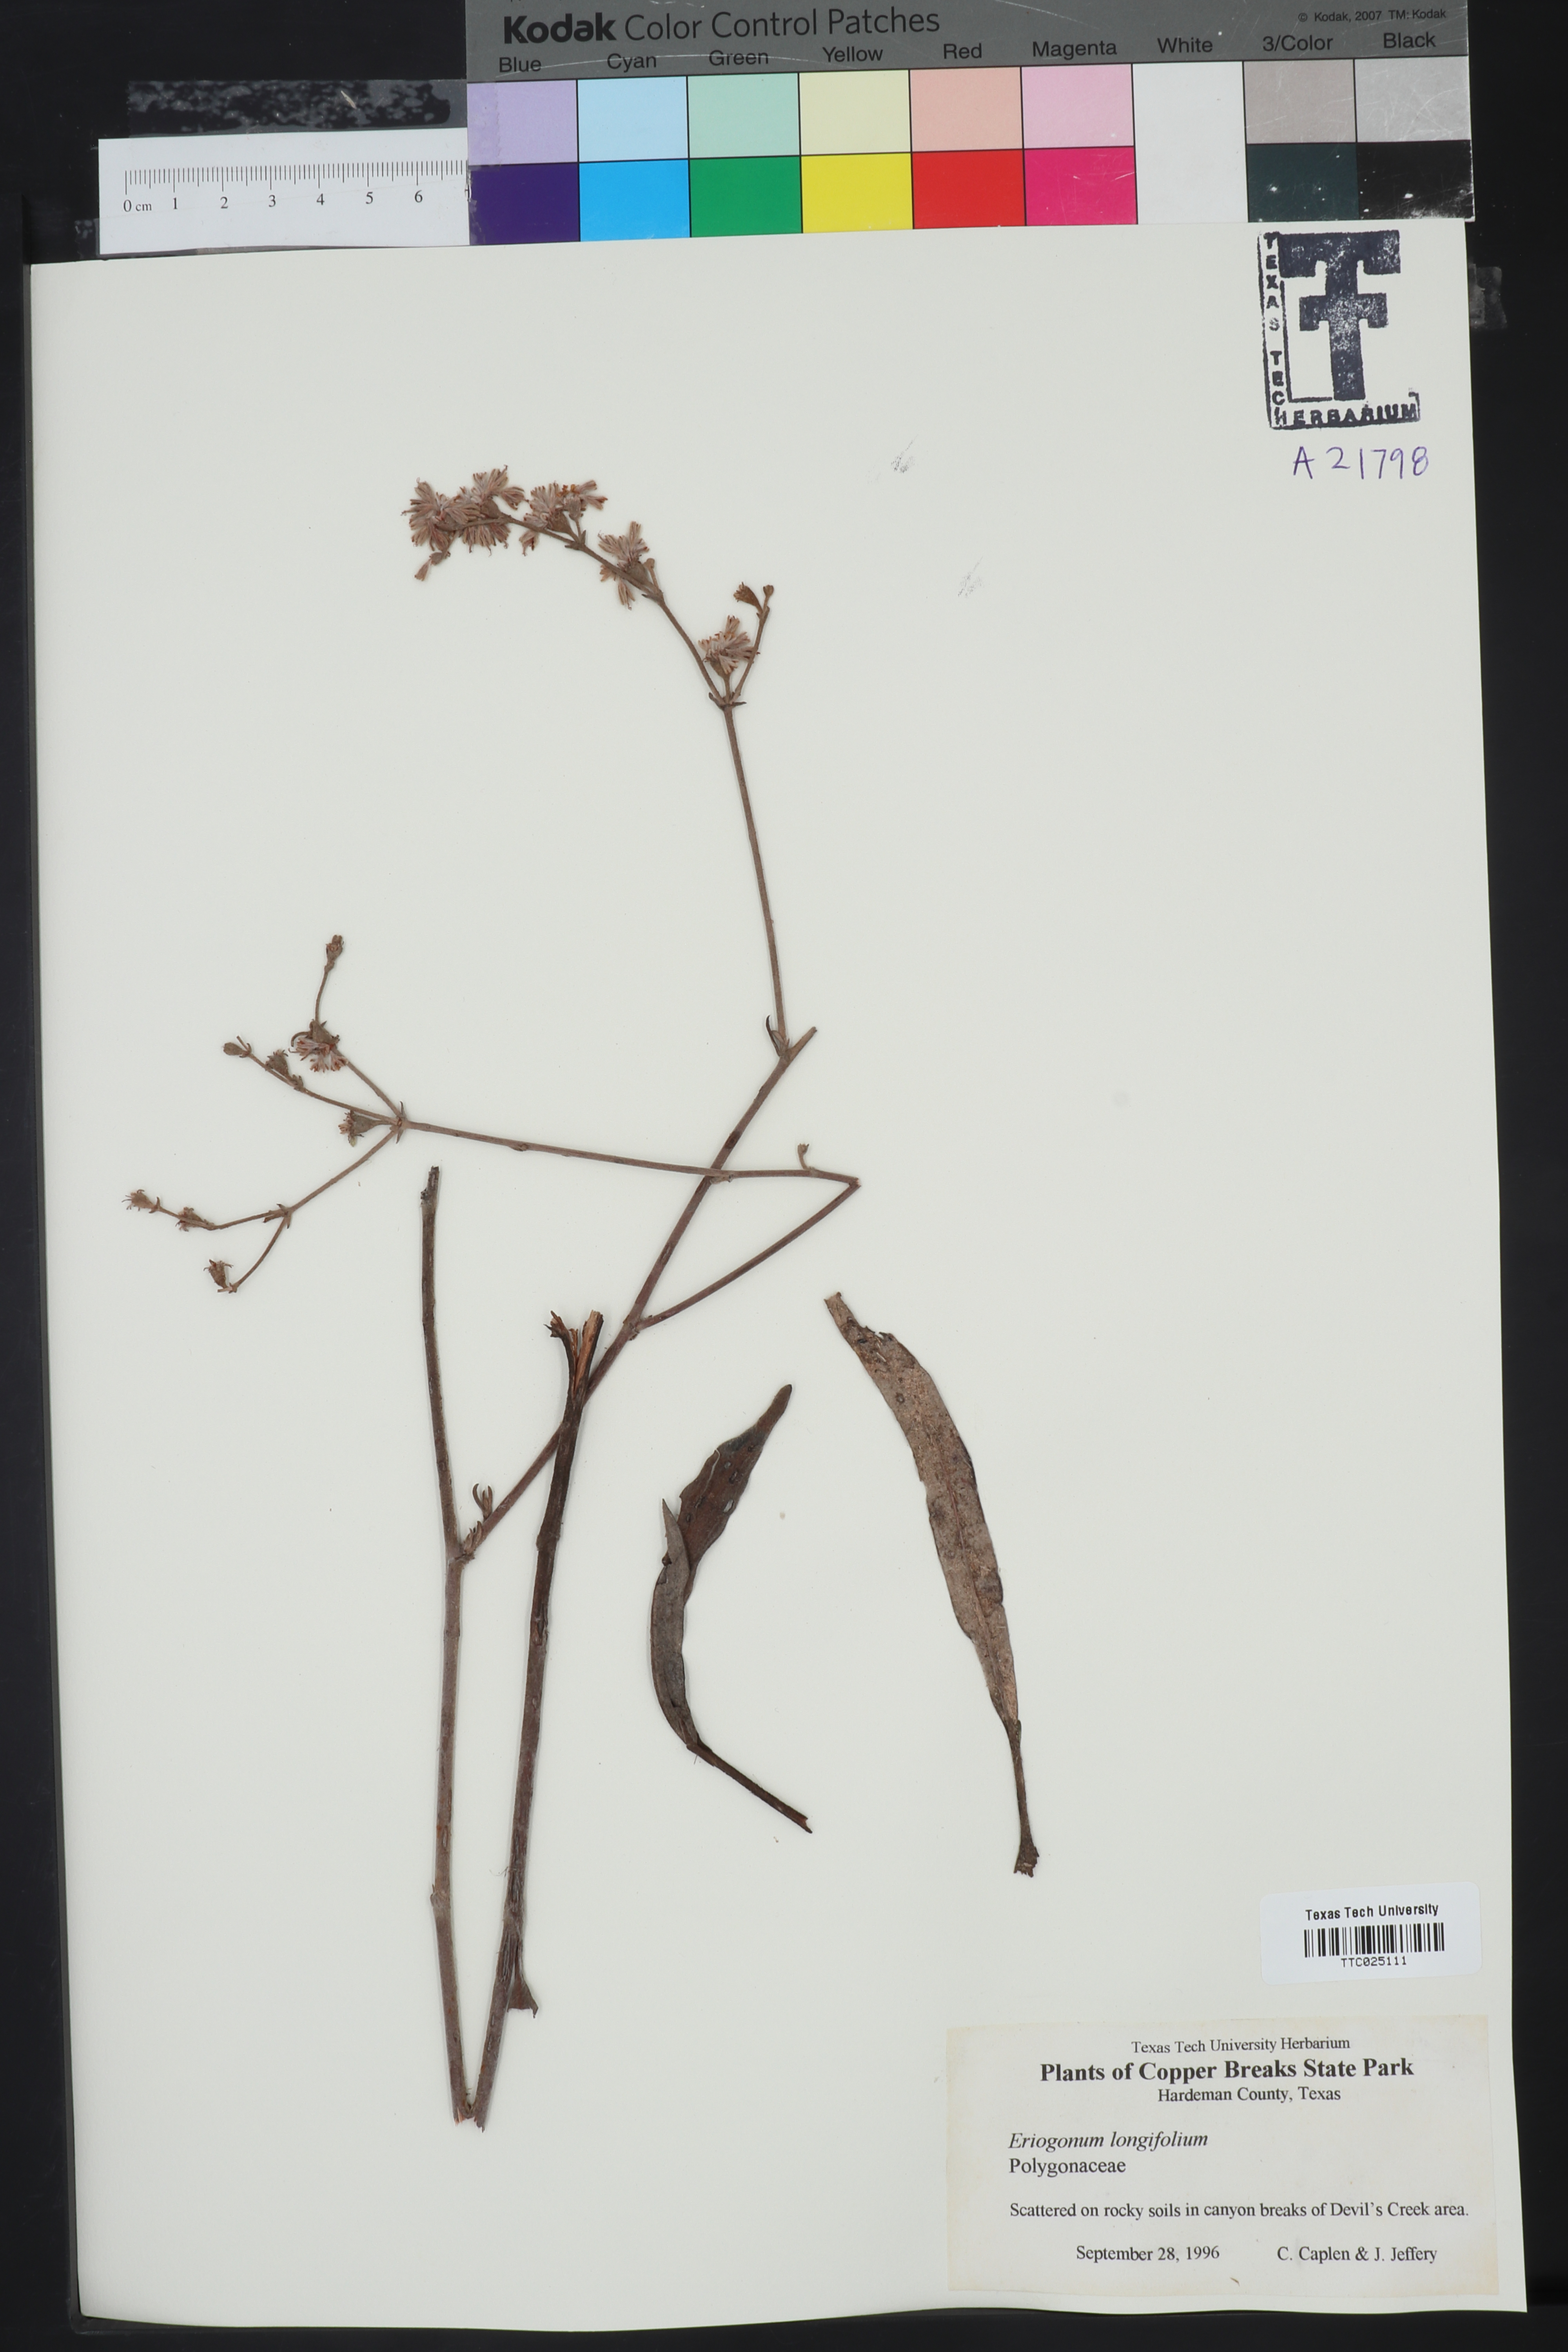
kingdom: Plantae
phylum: Tracheophyta
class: Magnoliopsida
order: Caryophyllales
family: Polygonaceae
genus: Eriogonum
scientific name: Eriogonum longifolium
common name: Longleaf wild buckwheat
